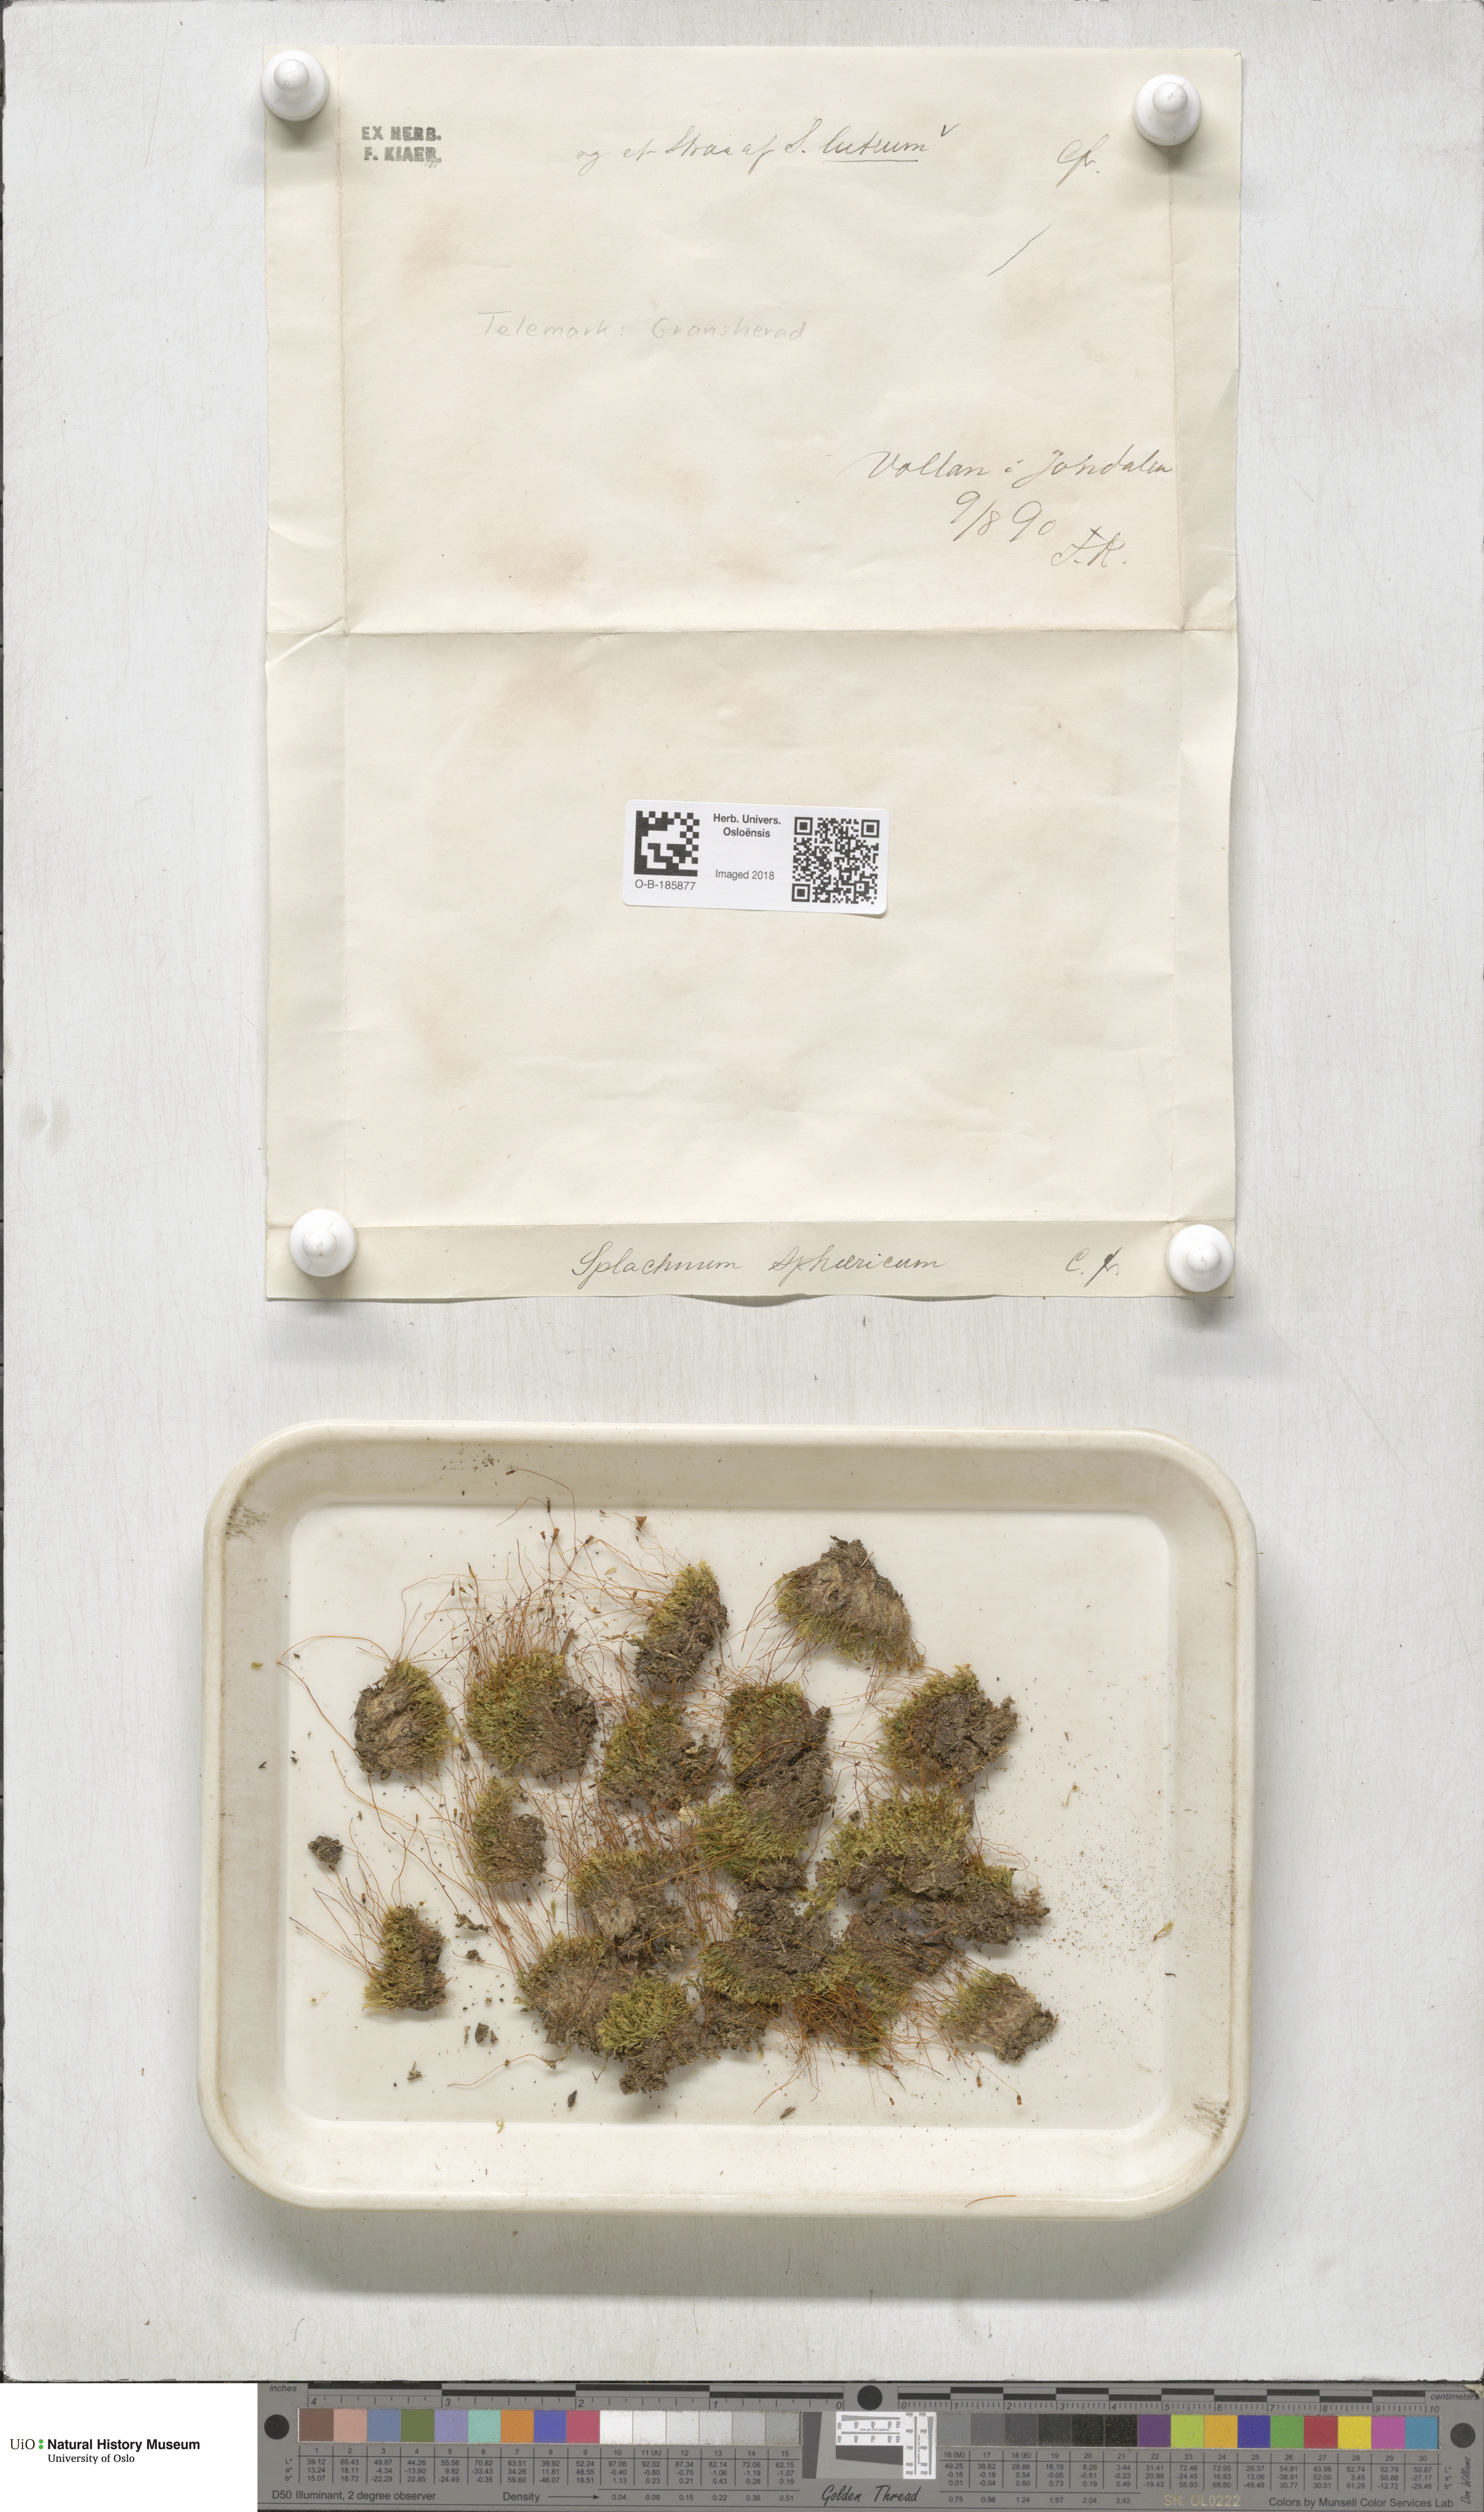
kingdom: Plantae
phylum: Bryophyta
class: Bryopsida
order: Splachnales
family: Splachnaceae
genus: Splachnum
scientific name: Splachnum luteum
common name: Yellow dung moss
